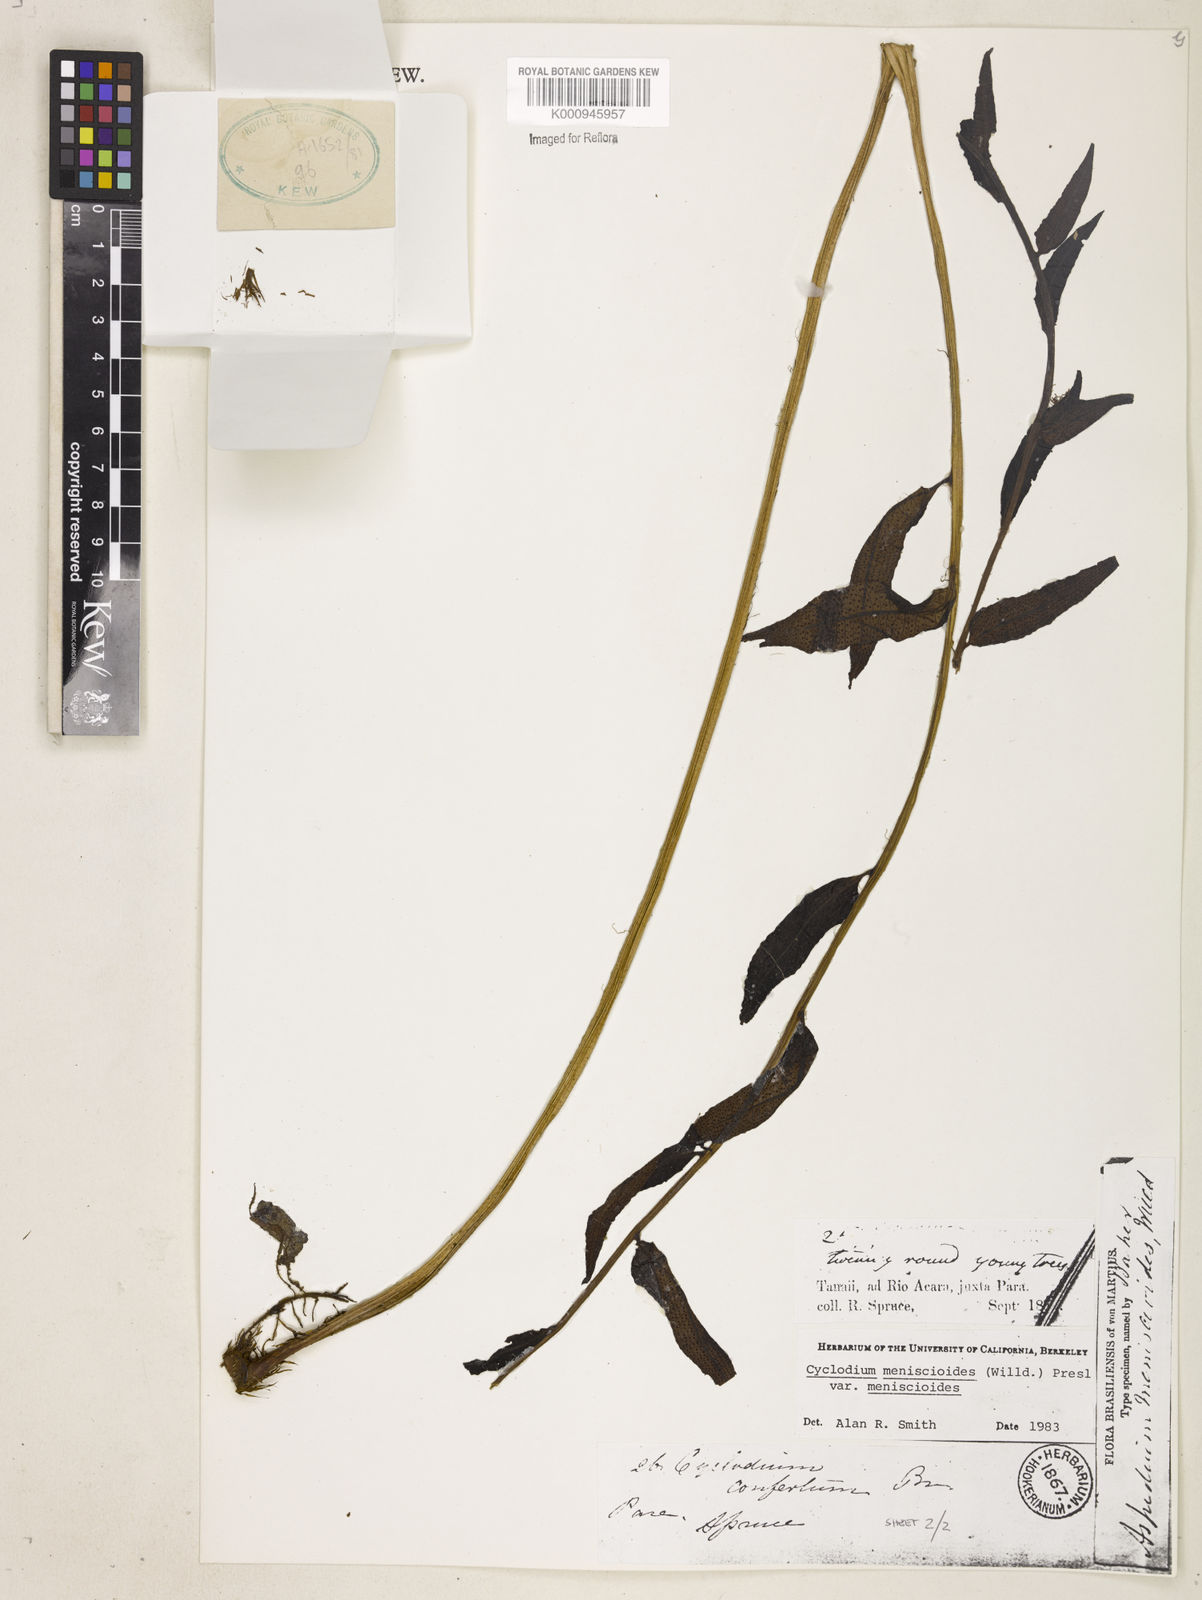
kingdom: Plantae
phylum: Tracheophyta
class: Polypodiopsida
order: Polypodiales
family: Dryopteridaceae
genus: Cyclodium
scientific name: Cyclodium meniscioides
